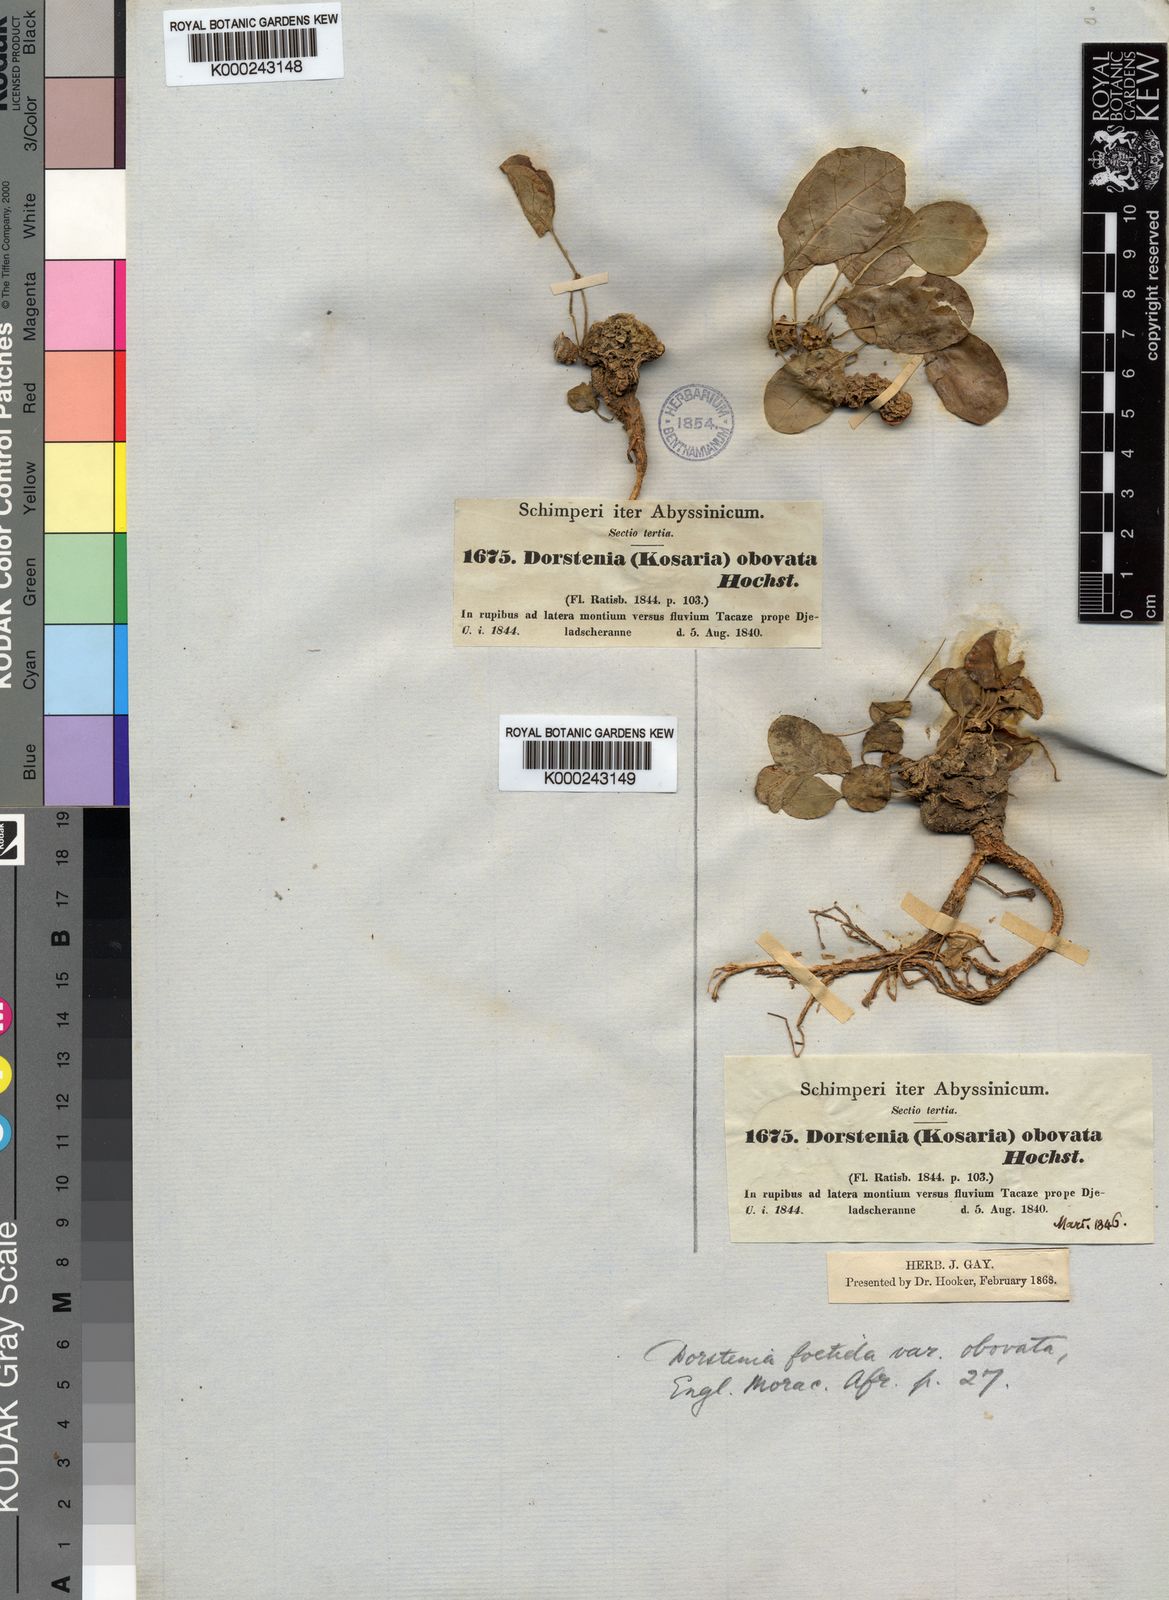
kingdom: Plantae
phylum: Tracheophyta
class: Magnoliopsida
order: Rosales
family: Moraceae
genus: Dorstenia
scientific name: Dorstenia
